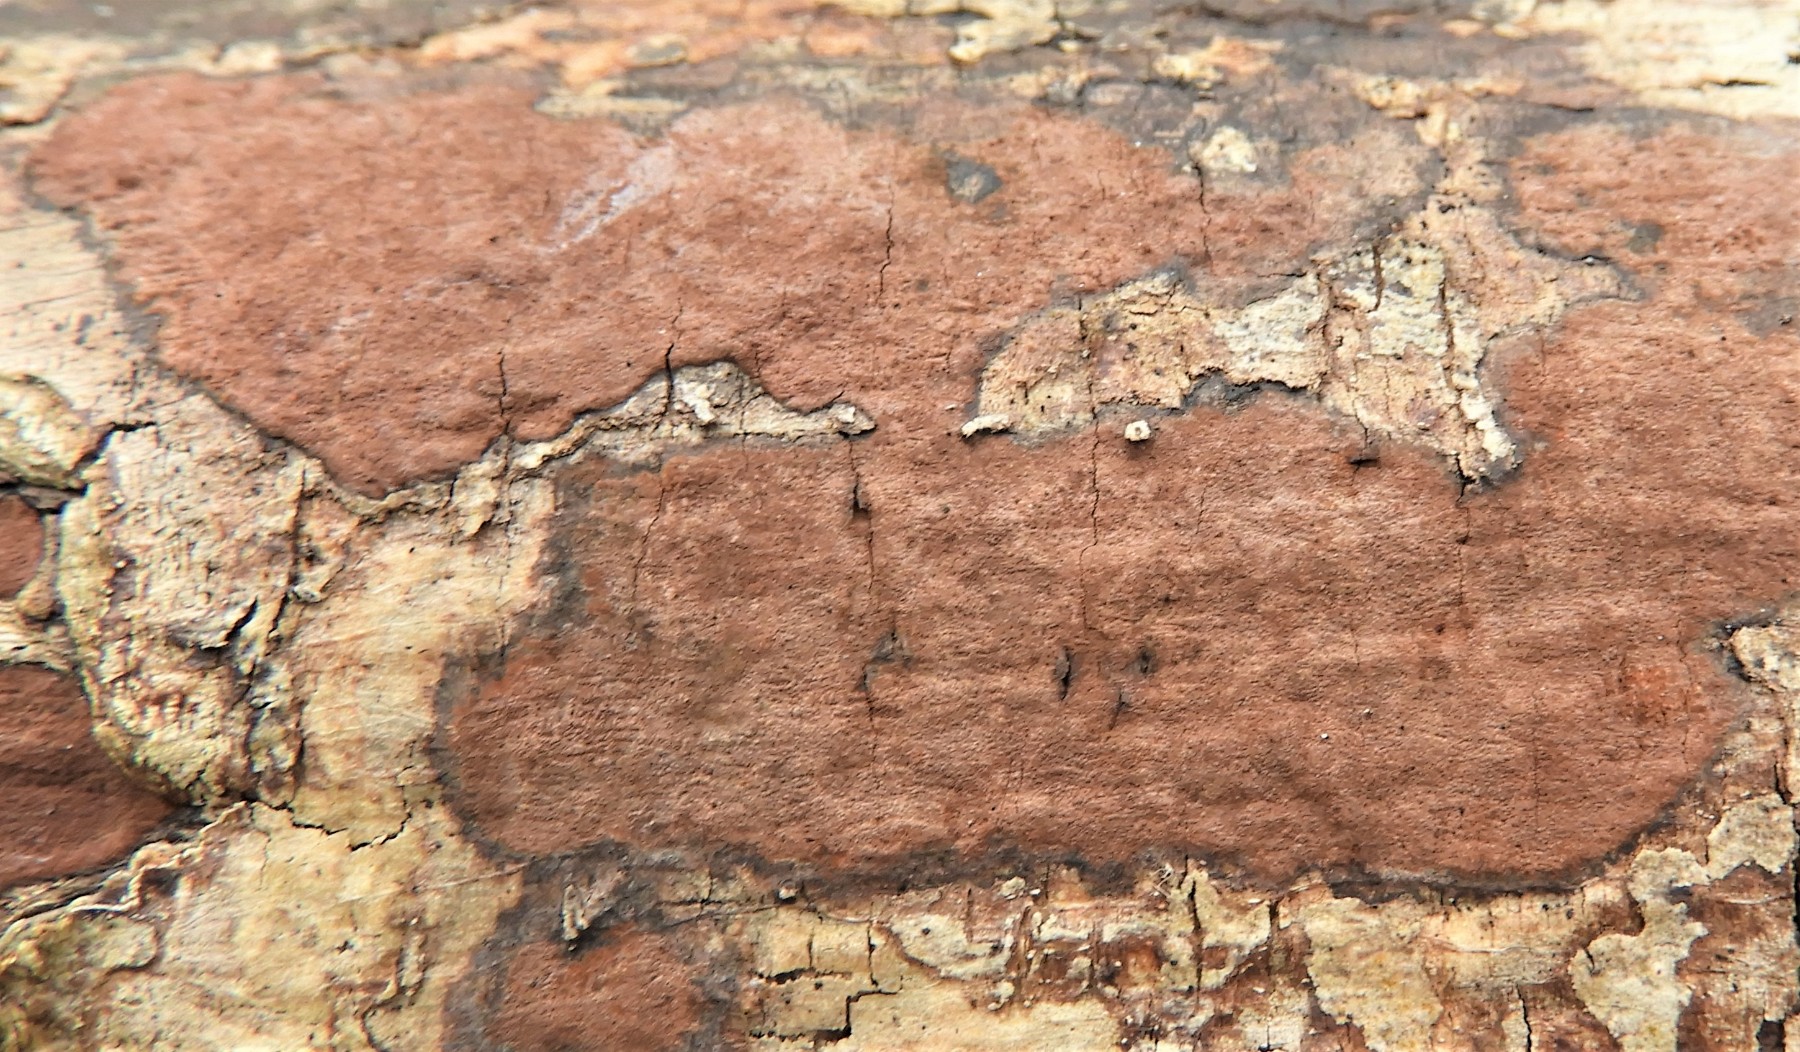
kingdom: Fungi
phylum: Ascomycota
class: Sordariomycetes
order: Xylariales
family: Hypoxylaceae
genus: Hypoxylon
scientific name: Hypoxylon petriniae
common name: nedsænket kulbær
